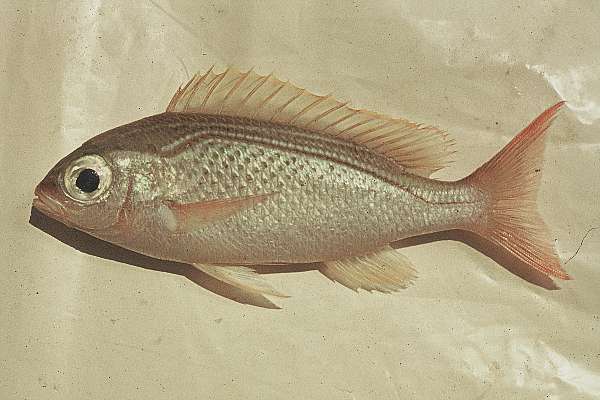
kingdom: Animalia
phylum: Chordata
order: Perciformes
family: Nemipteridae
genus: Scolopsis
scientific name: Scolopsis ghanam
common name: Arabian monocle bream
